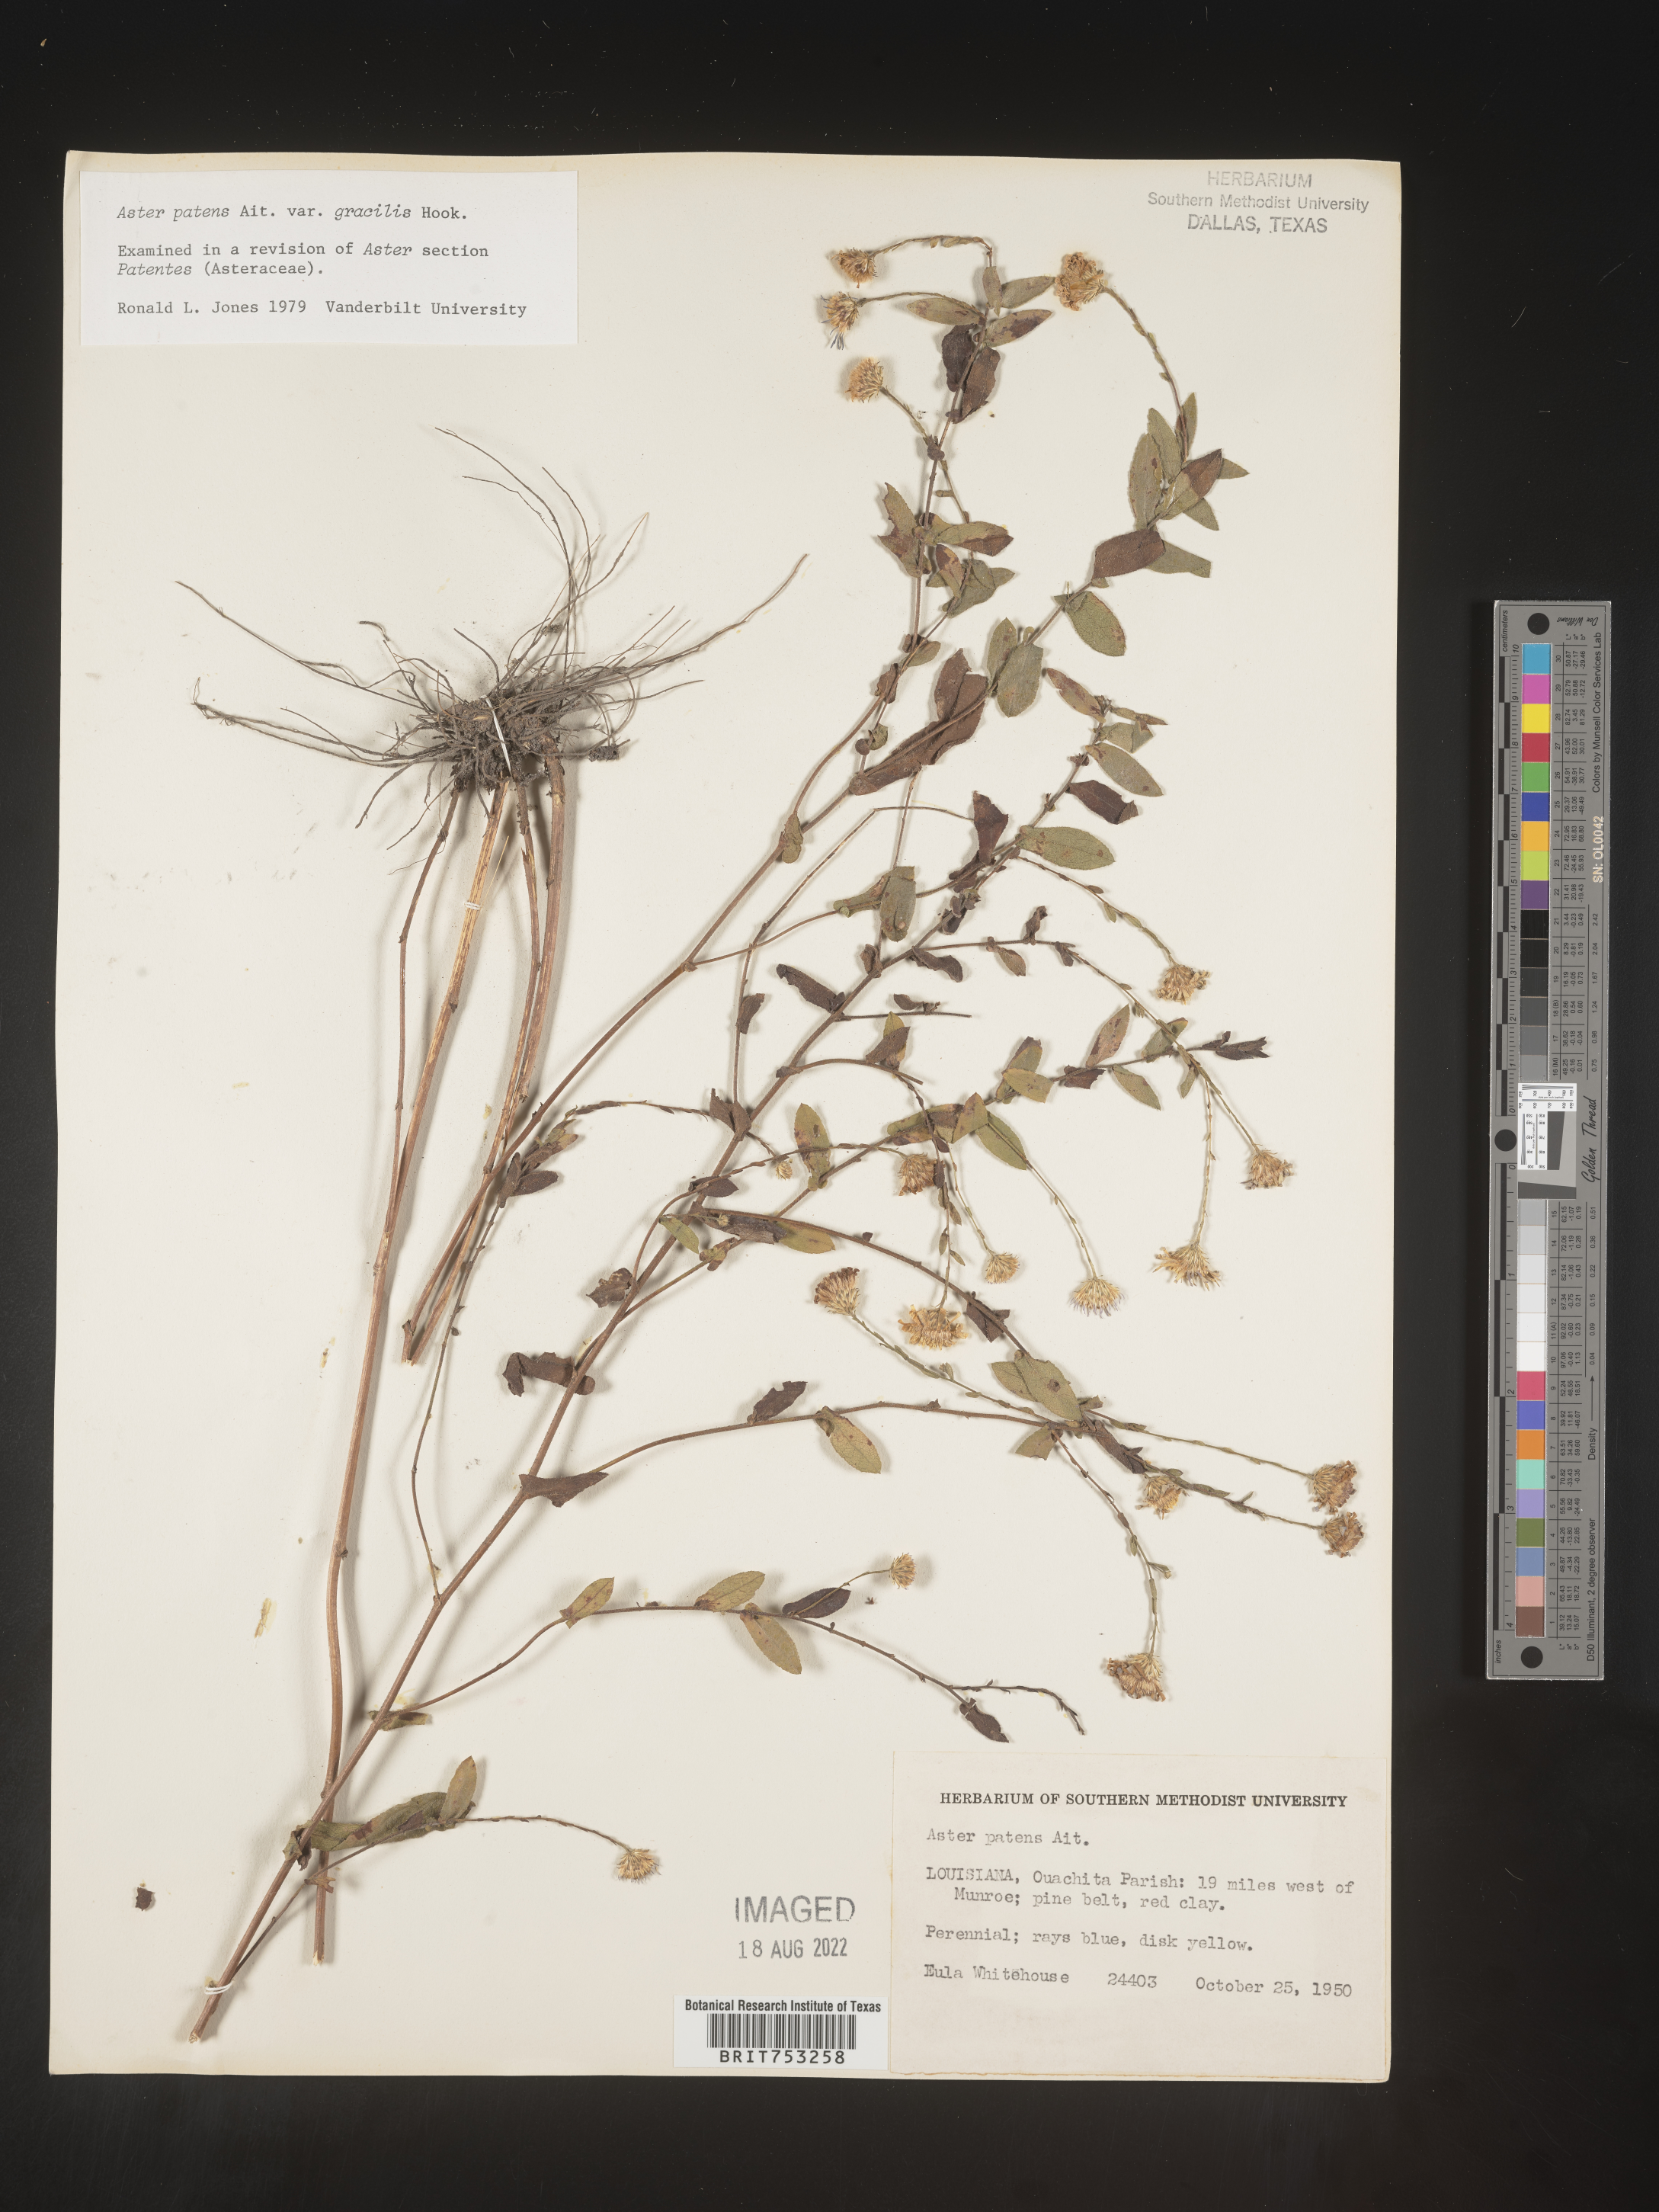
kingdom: Plantae
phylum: Tracheophyta
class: Magnoliopsida
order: Asterales
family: Asteraceae
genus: Symphyotrichum
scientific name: Symphyotrichum patens
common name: Late purple aster
